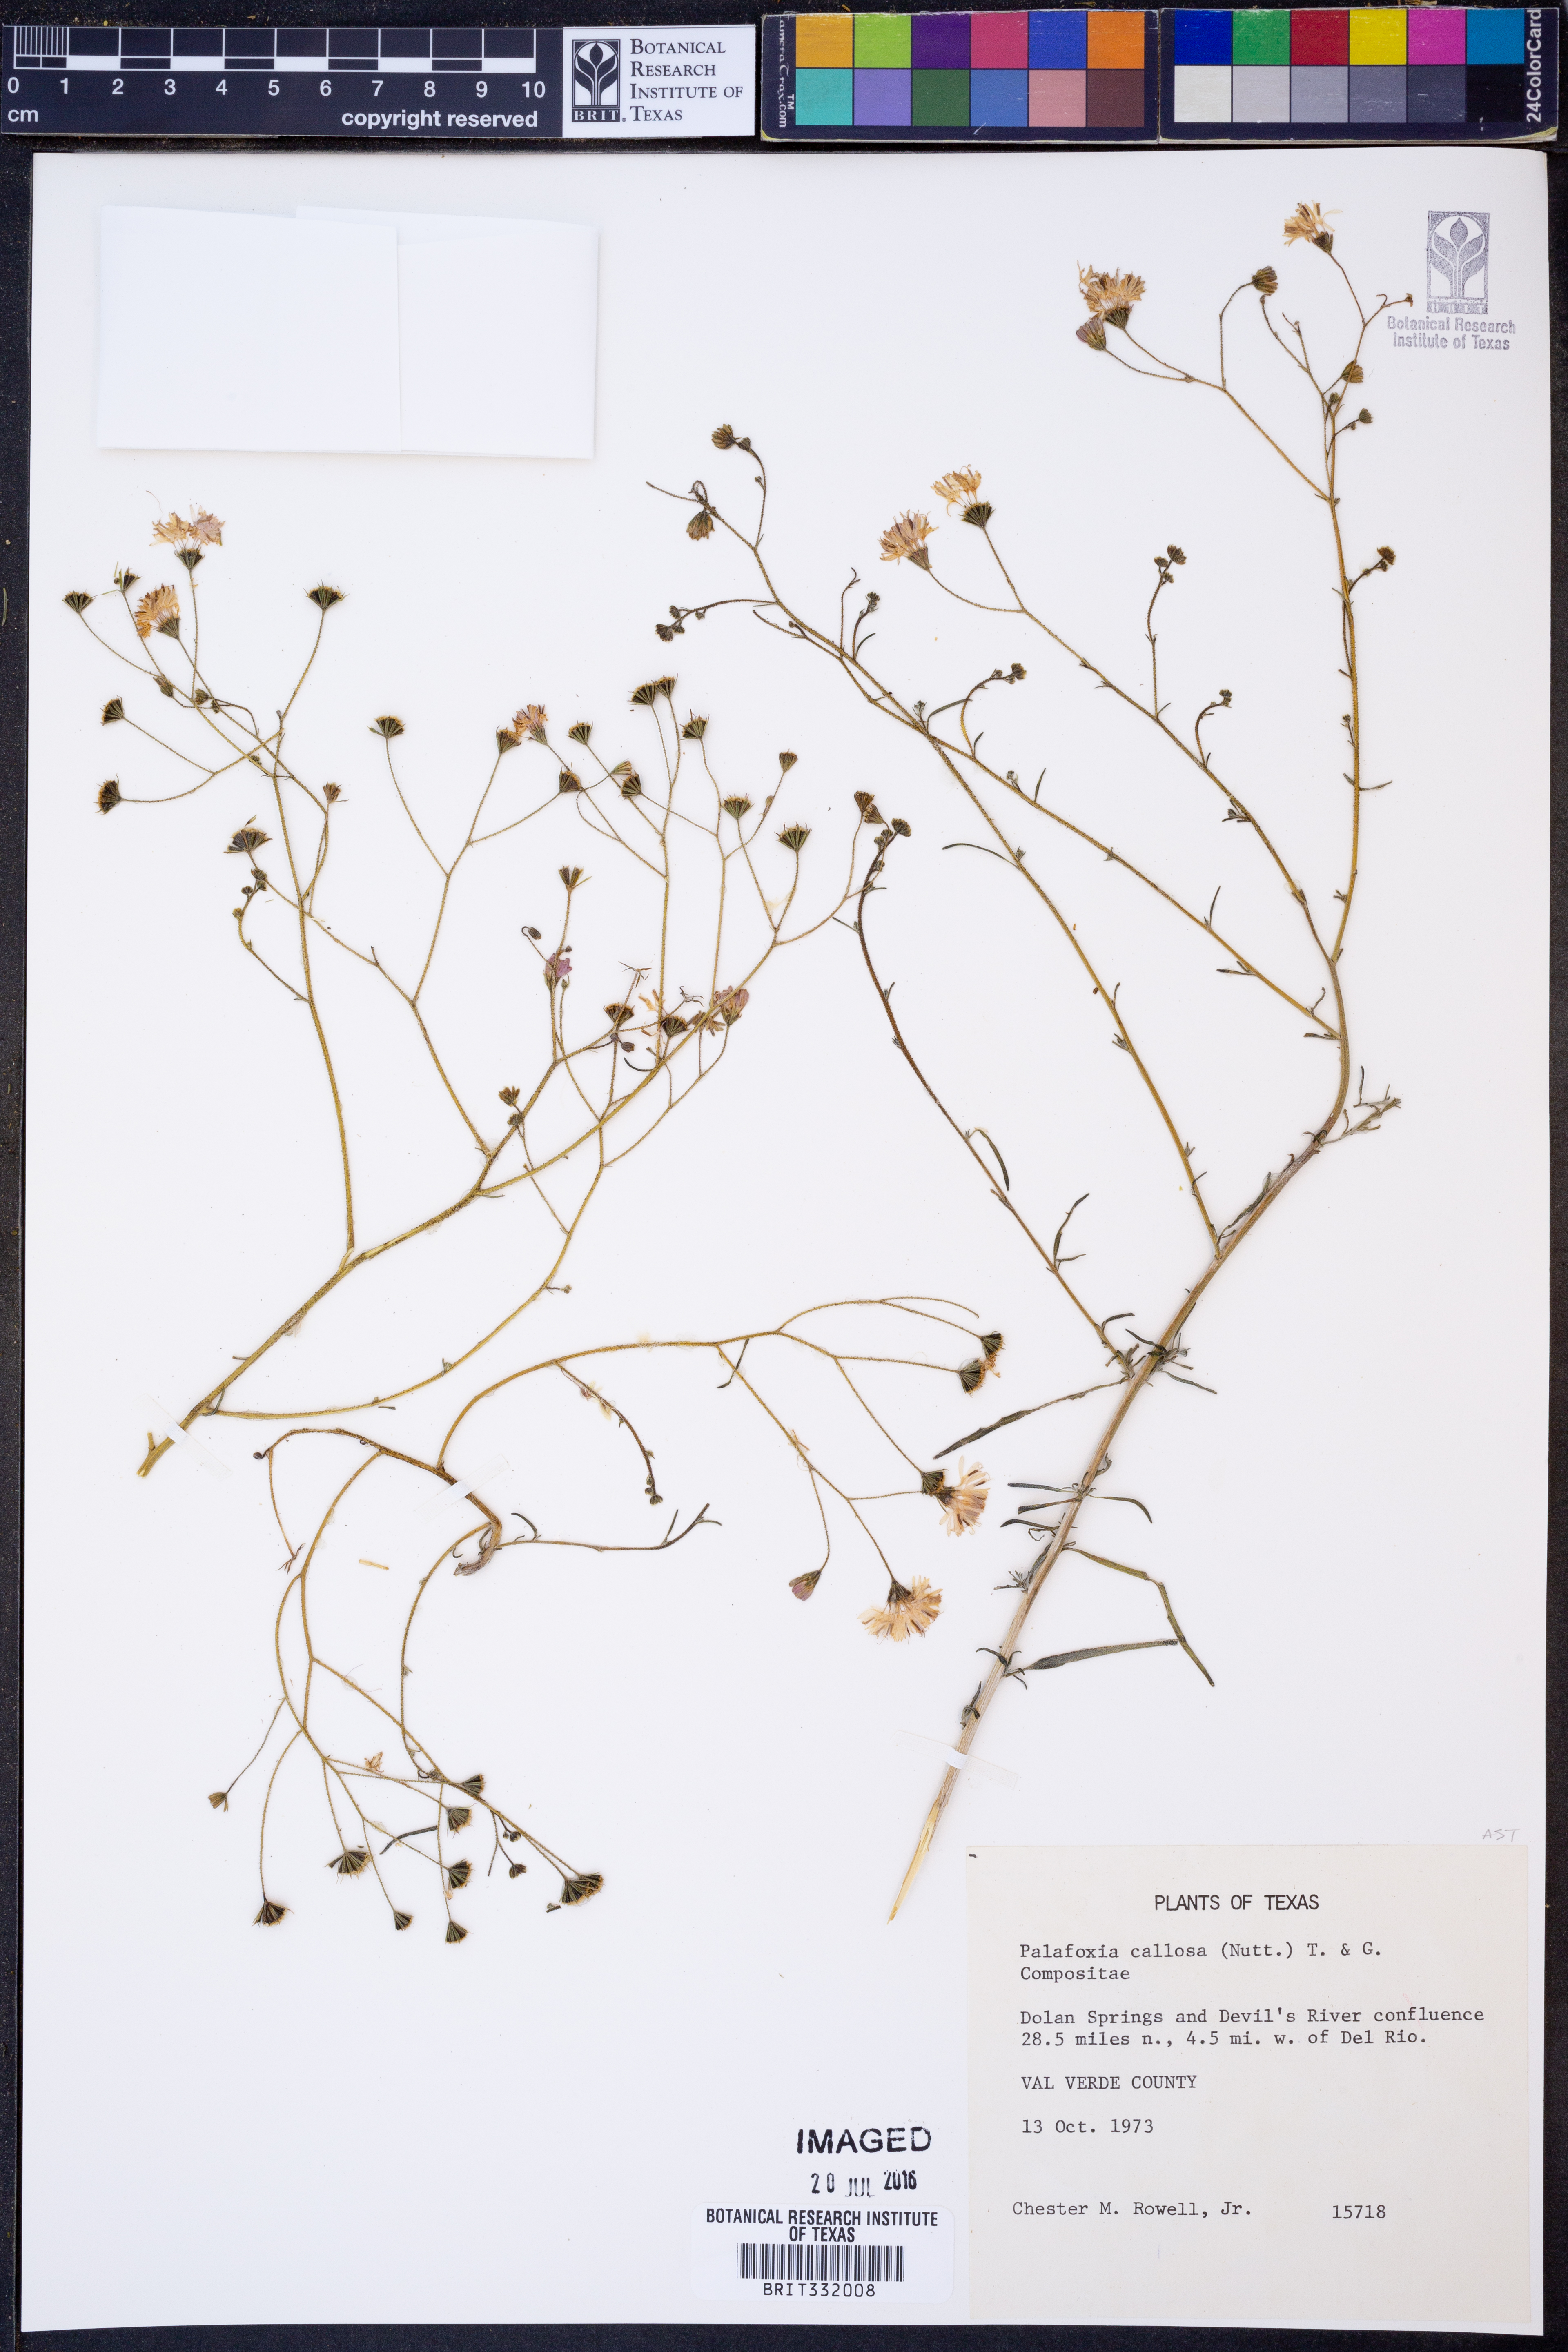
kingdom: Plantae
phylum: Tracheophyta
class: Magnoliopsida
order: Asterales
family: Asteraceae
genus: Palafoxia
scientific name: Palafoxia callosa
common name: Small palafox
